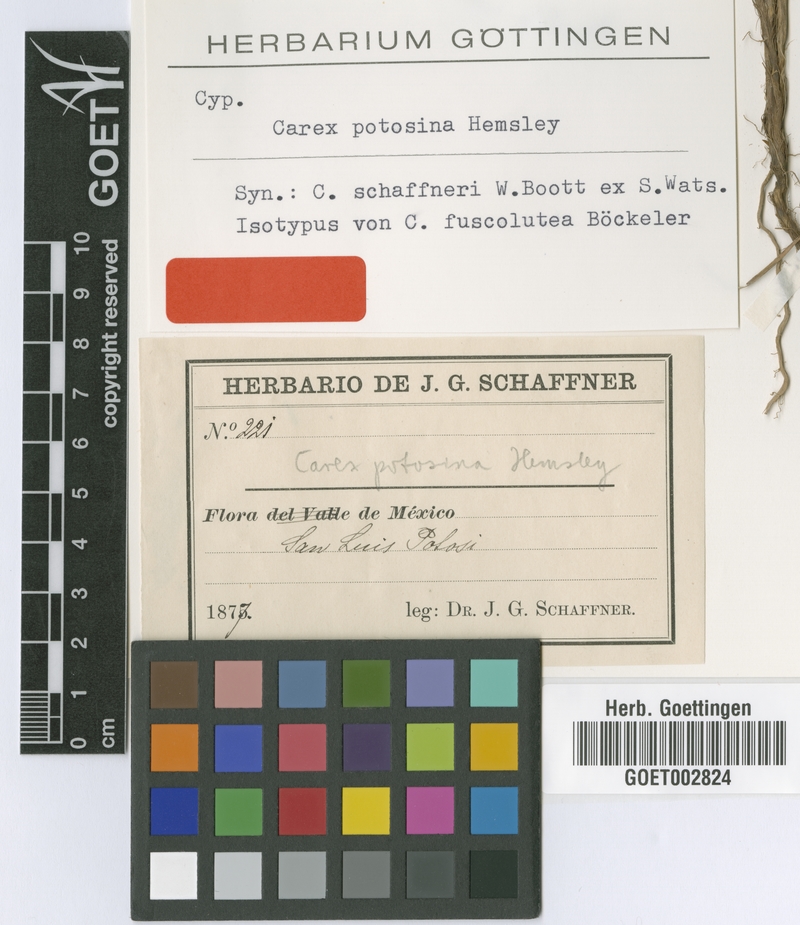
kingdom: Plantae
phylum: Tracheophyta
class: Liliopsida
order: Poales
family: Cyperaceae
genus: Carex
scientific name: Carex potosina
